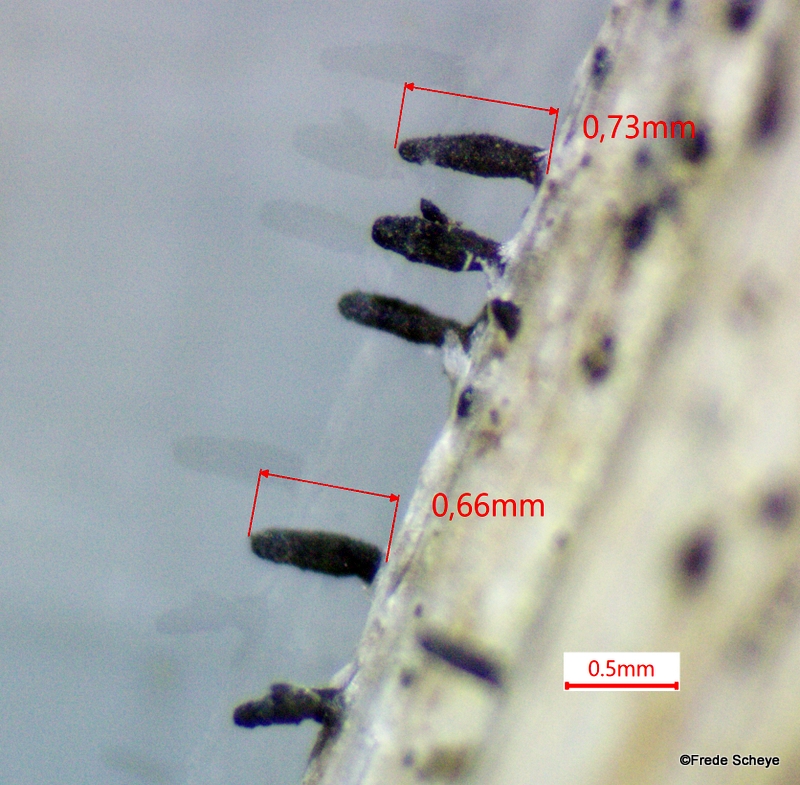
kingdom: Fungi
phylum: Ascomycota
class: Dothideomycetes
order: Acrospermales
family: Acrospermaceae
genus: Acrospermum
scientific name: Acrospermum compressum
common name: nælde-stængeltunge
